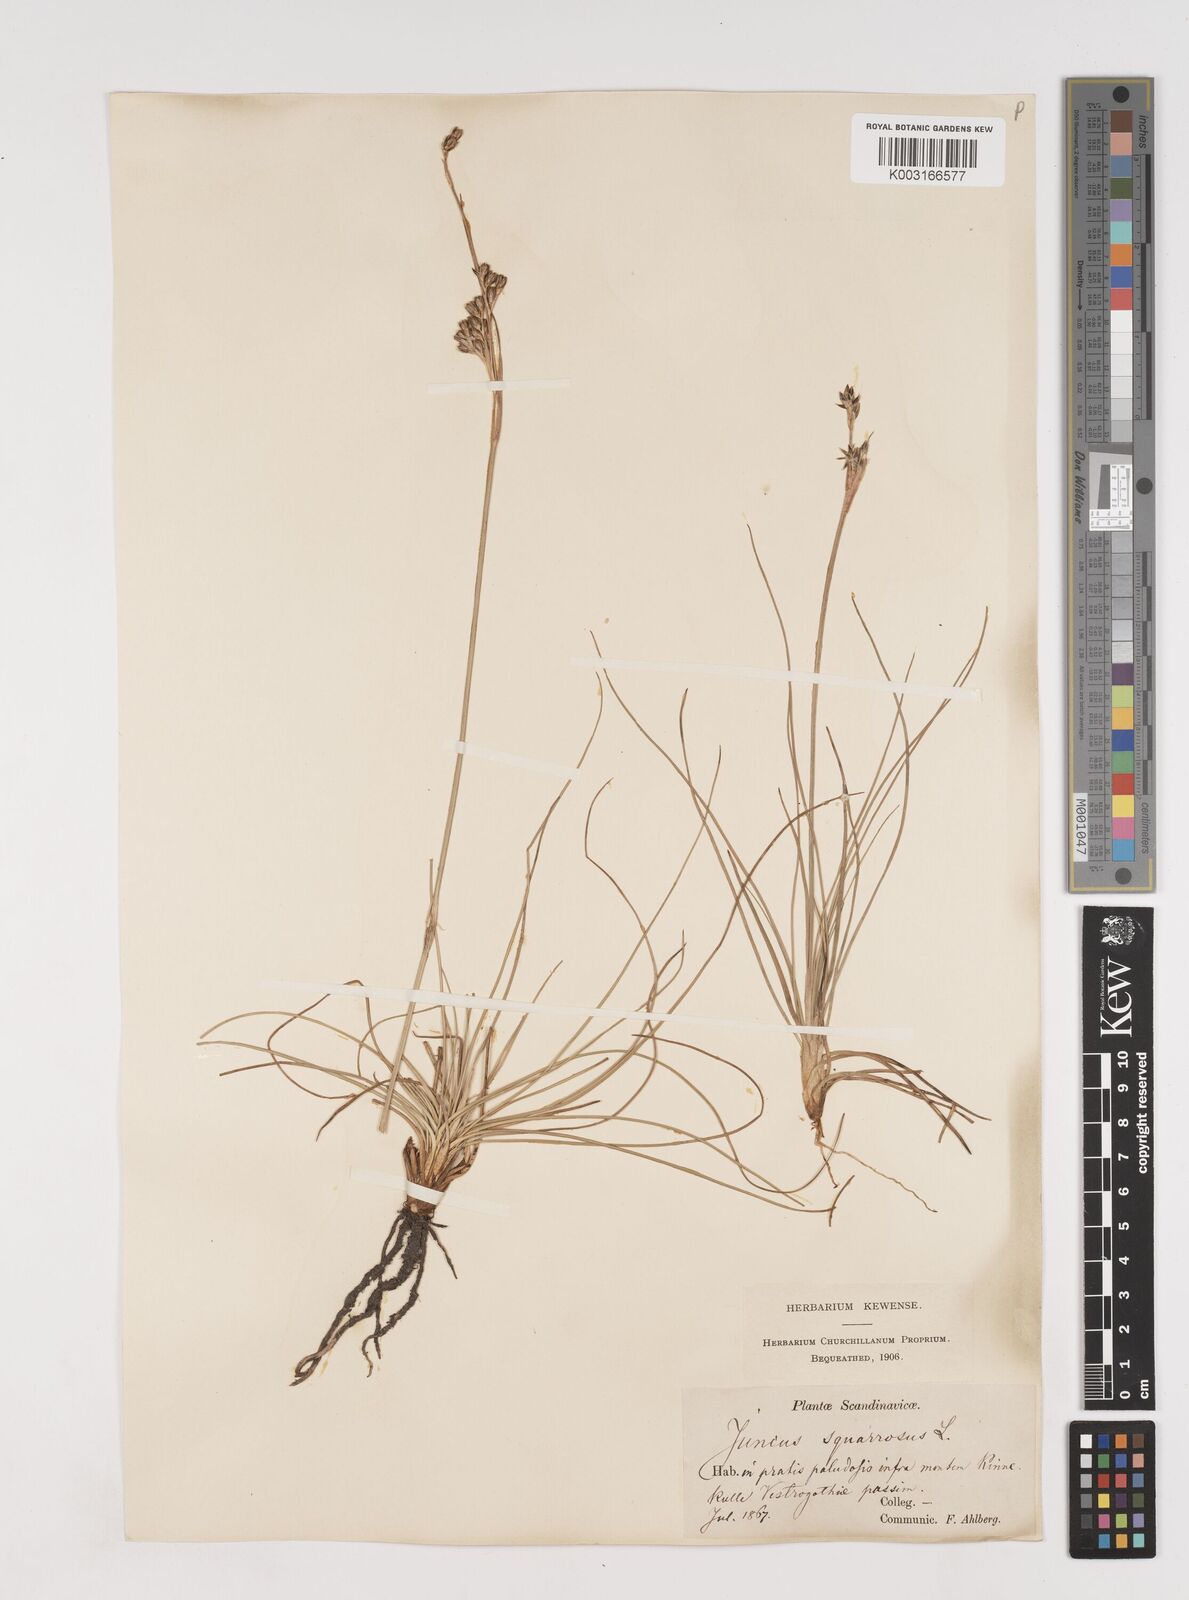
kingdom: Plantae
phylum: Tracheophyta
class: Liliopsida
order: Poales
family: Juncaceae
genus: Juncus
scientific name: Juncus squarrosus
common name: Heath rush
